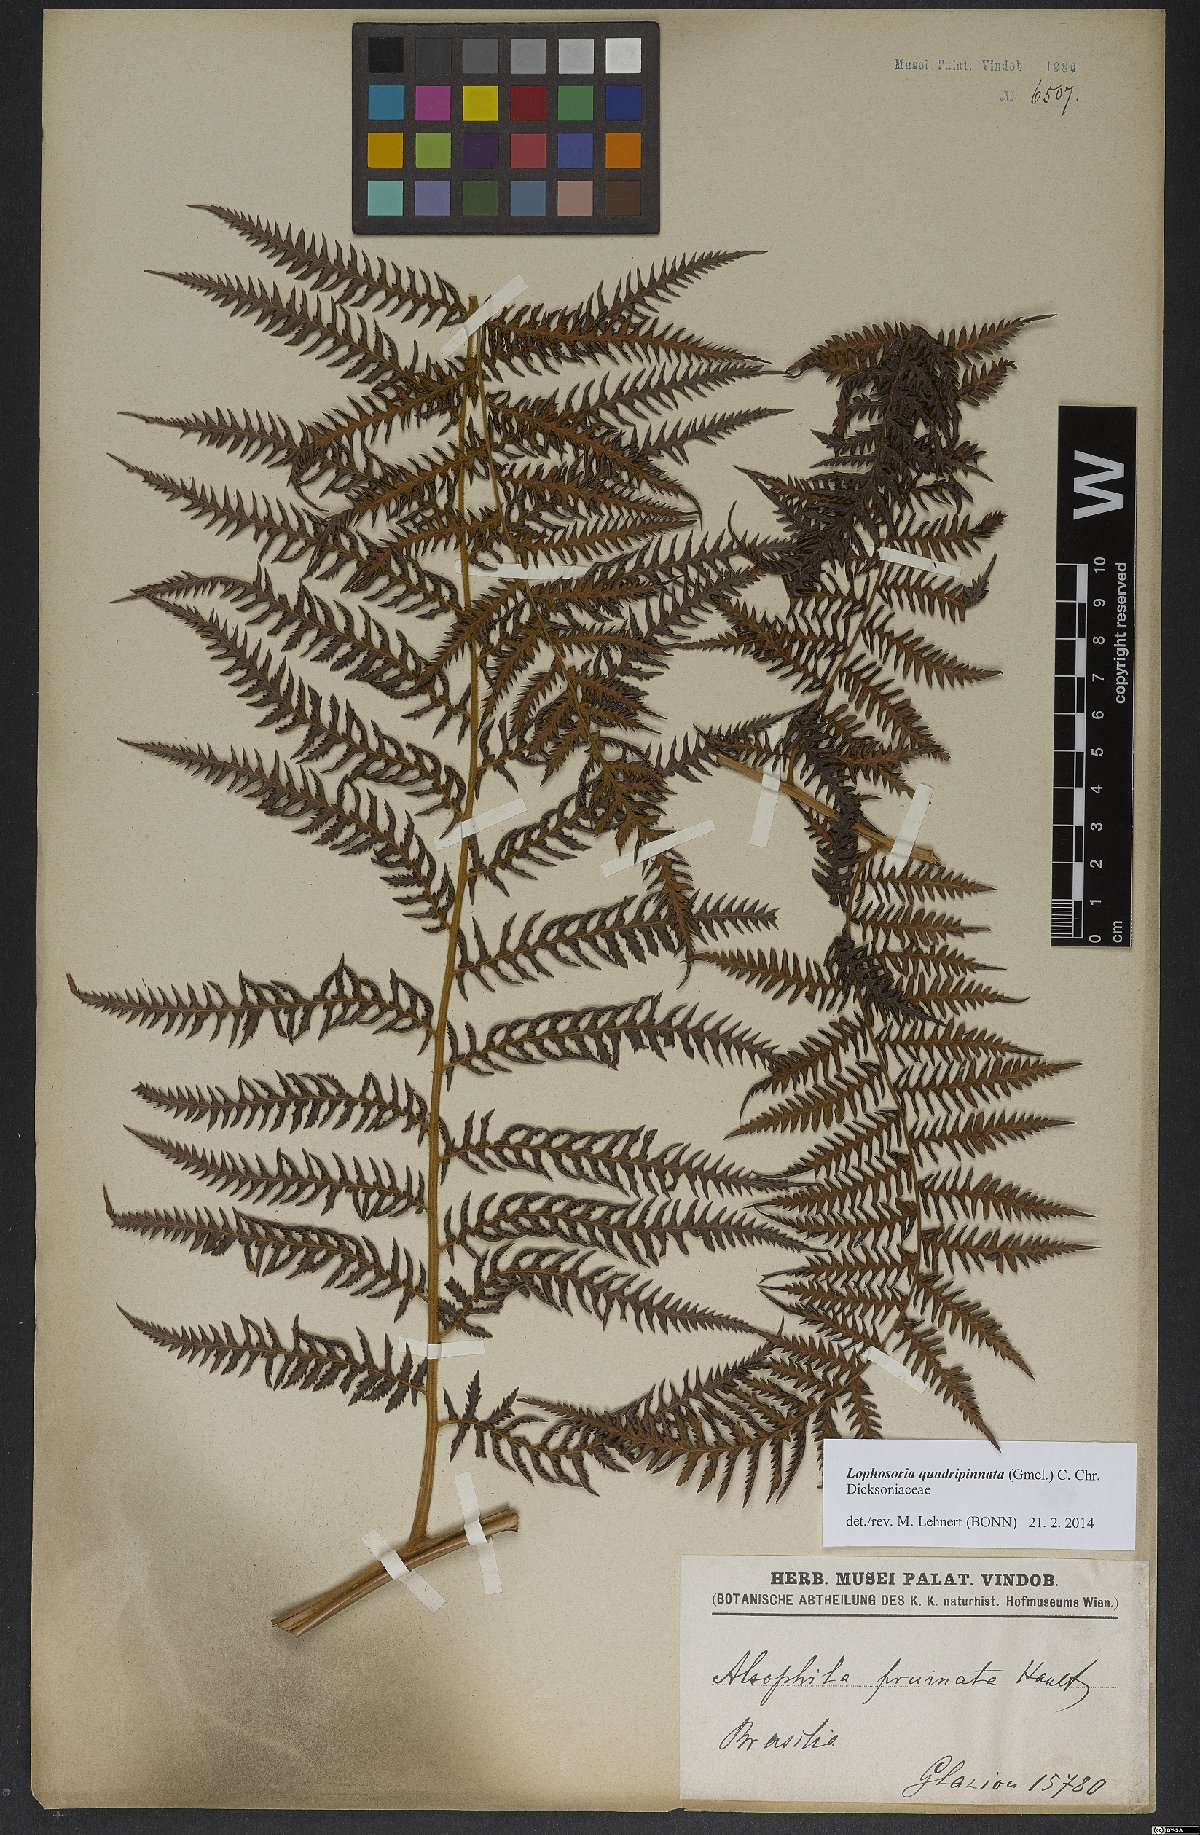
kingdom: Plantae
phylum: Tracheophyta
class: Polypodiopsida
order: Cyatheales
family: Dicksoniaceae
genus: Lophosoria
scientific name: Lophosoria quadripinnata
